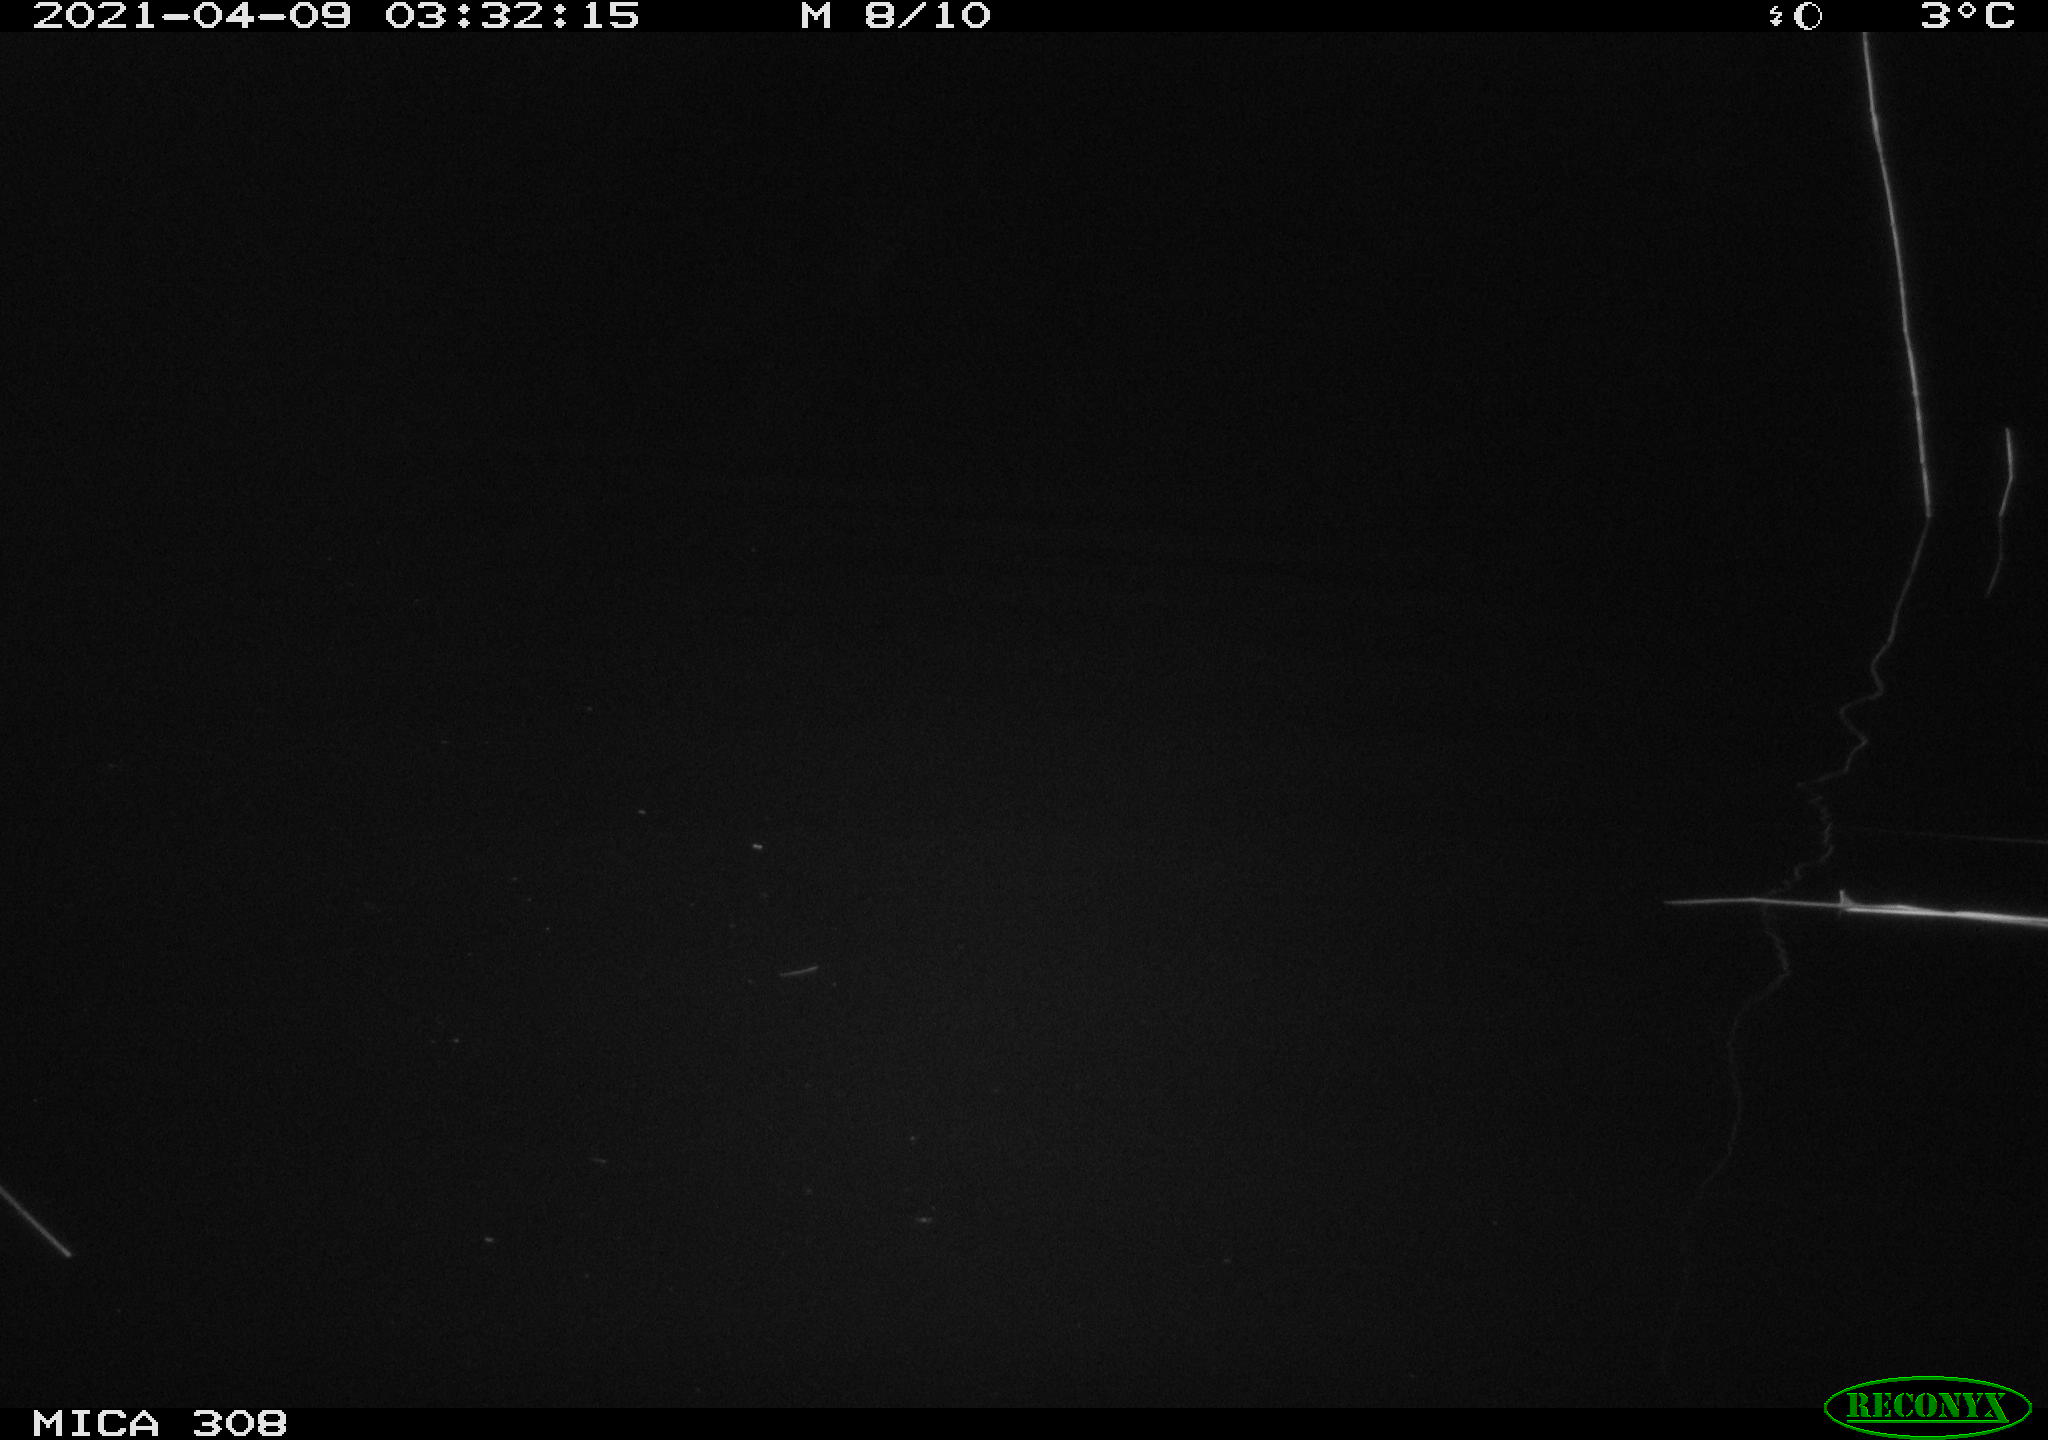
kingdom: Animalia
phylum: Chordata
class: Aves
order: Anseriformes
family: Anatidae
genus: Anas
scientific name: Anas platyrhynchos
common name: Mallard
